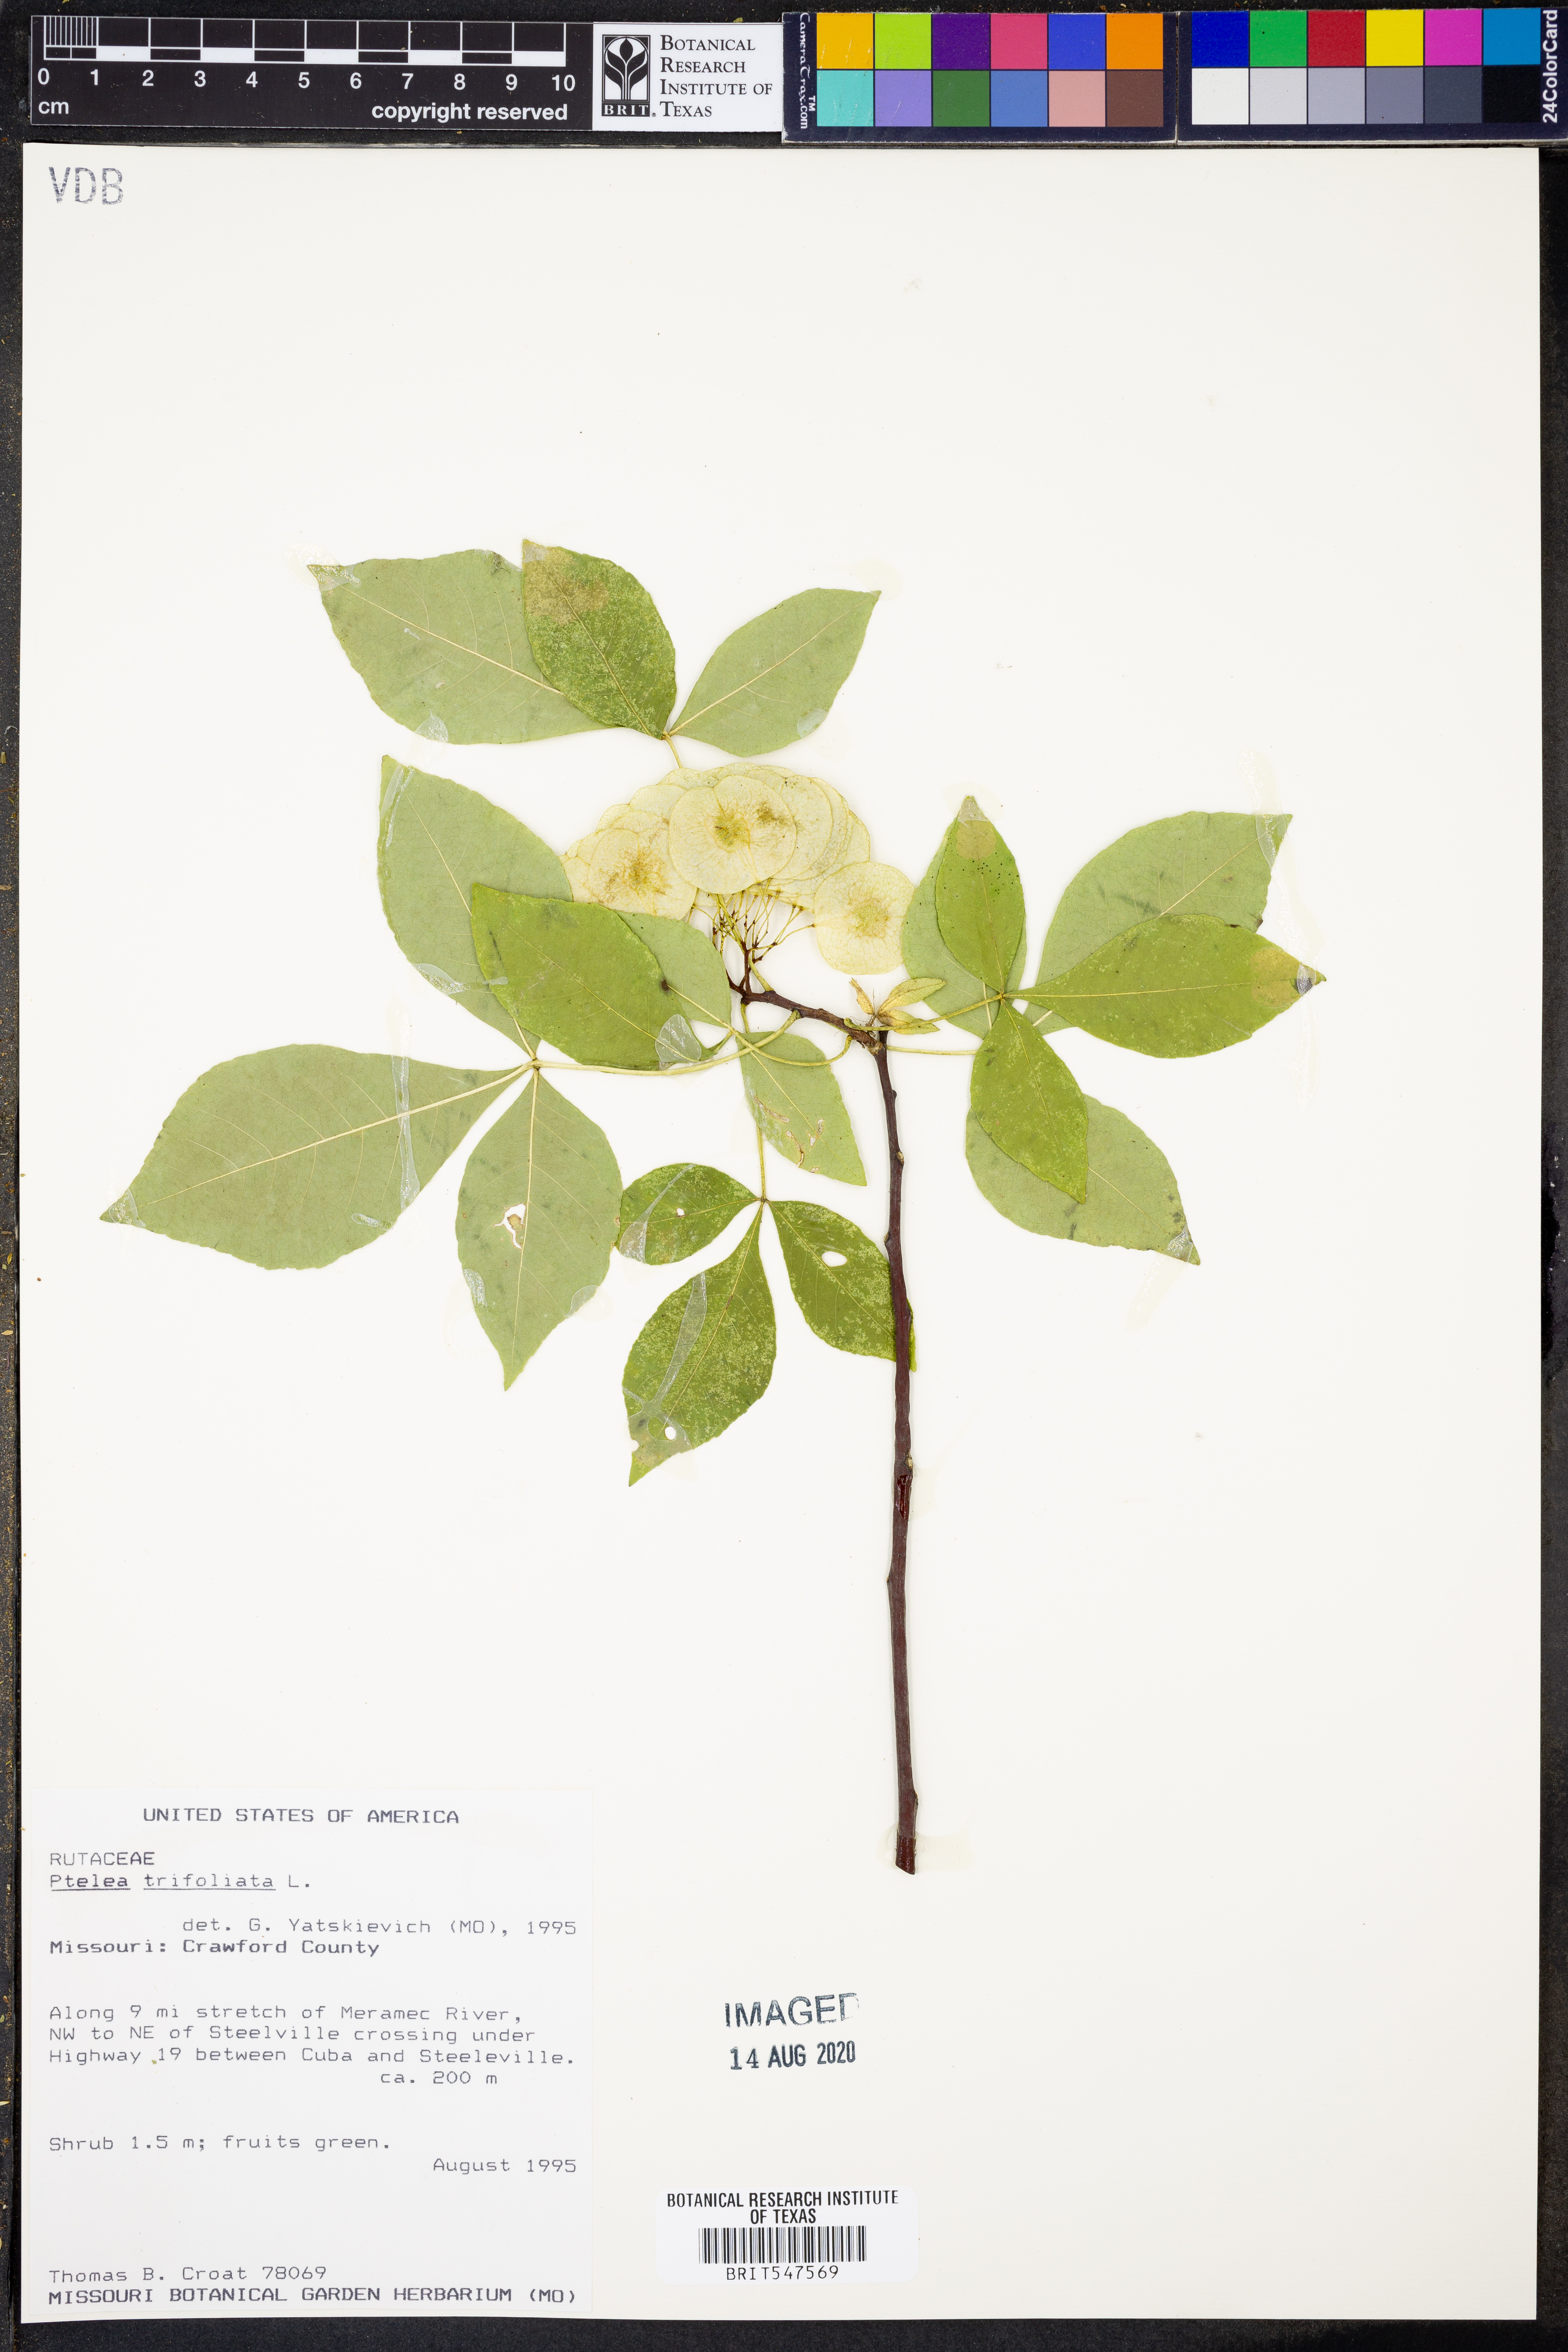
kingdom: Plantae
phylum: Tracheophyta
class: Magnoliopsida
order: Sapindales
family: Rutaceae
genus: Ptelea
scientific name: Ptelea trifoliata
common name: Common hop-tree
